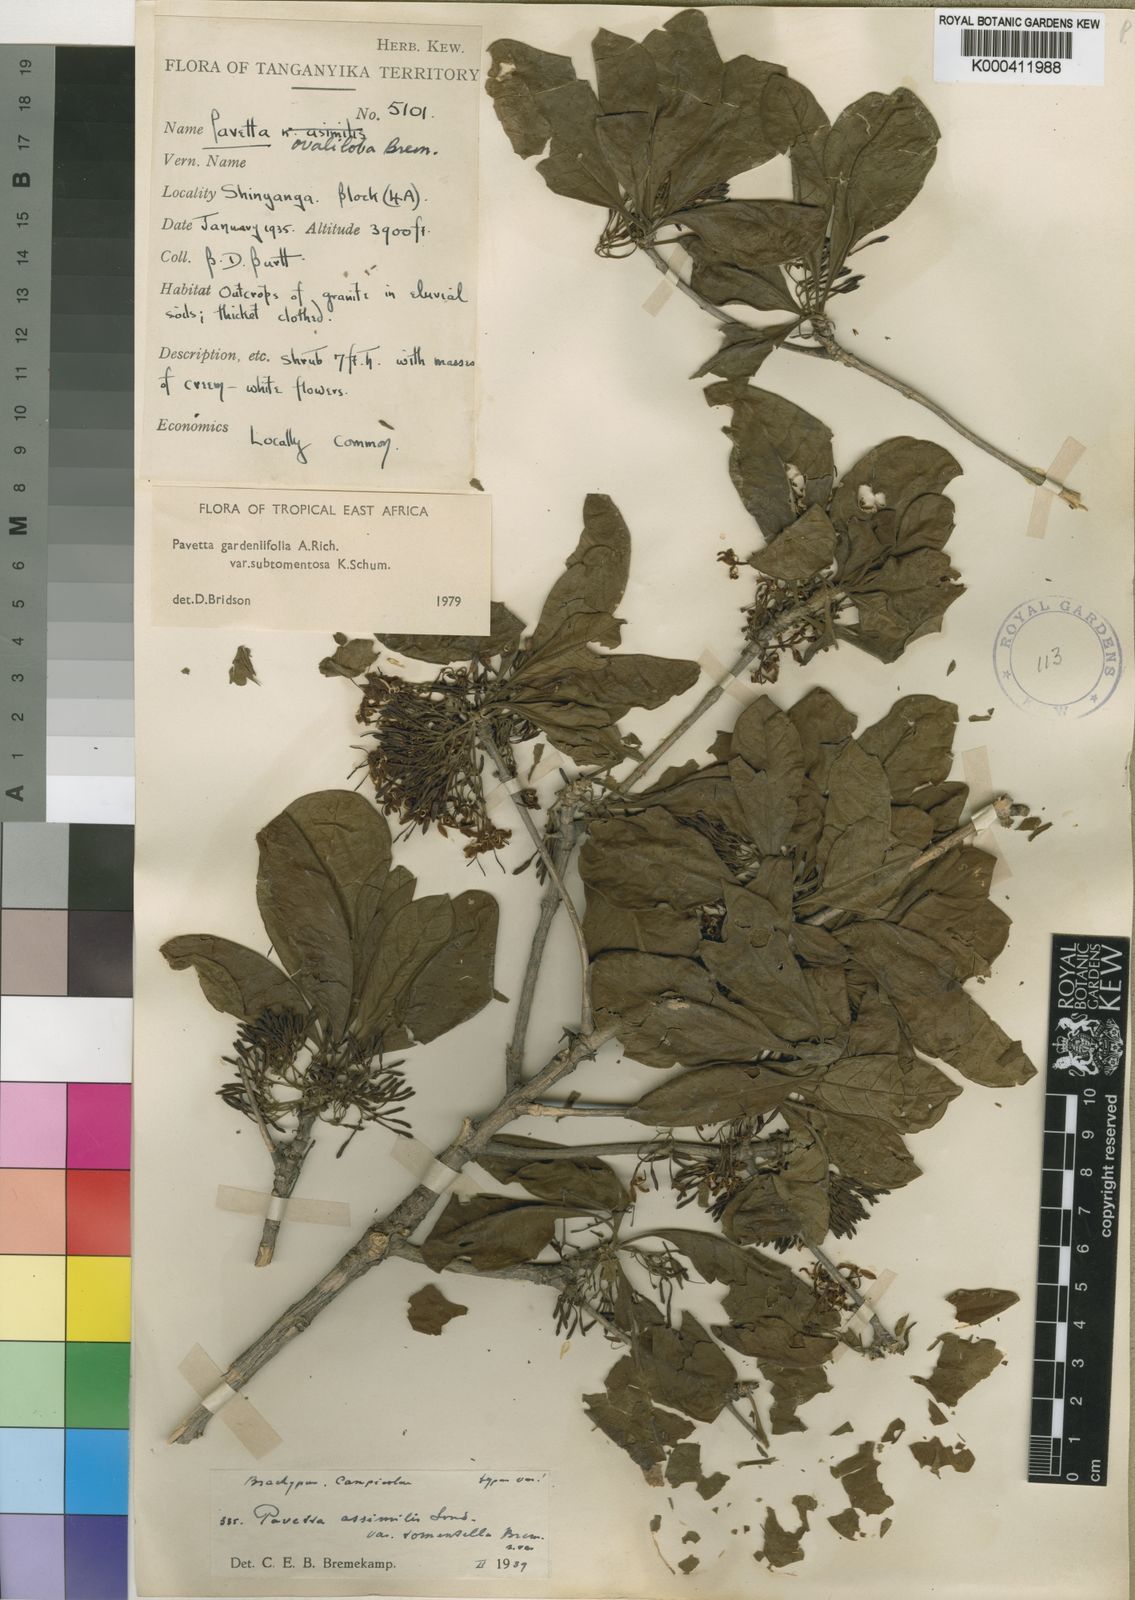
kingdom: Plantae
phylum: Tracheophyta
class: Magnoliopsida
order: Gentianales
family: Rubiaceae
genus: Pavetta
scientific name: Pavetta gardeniifolia
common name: Common brides-bush
